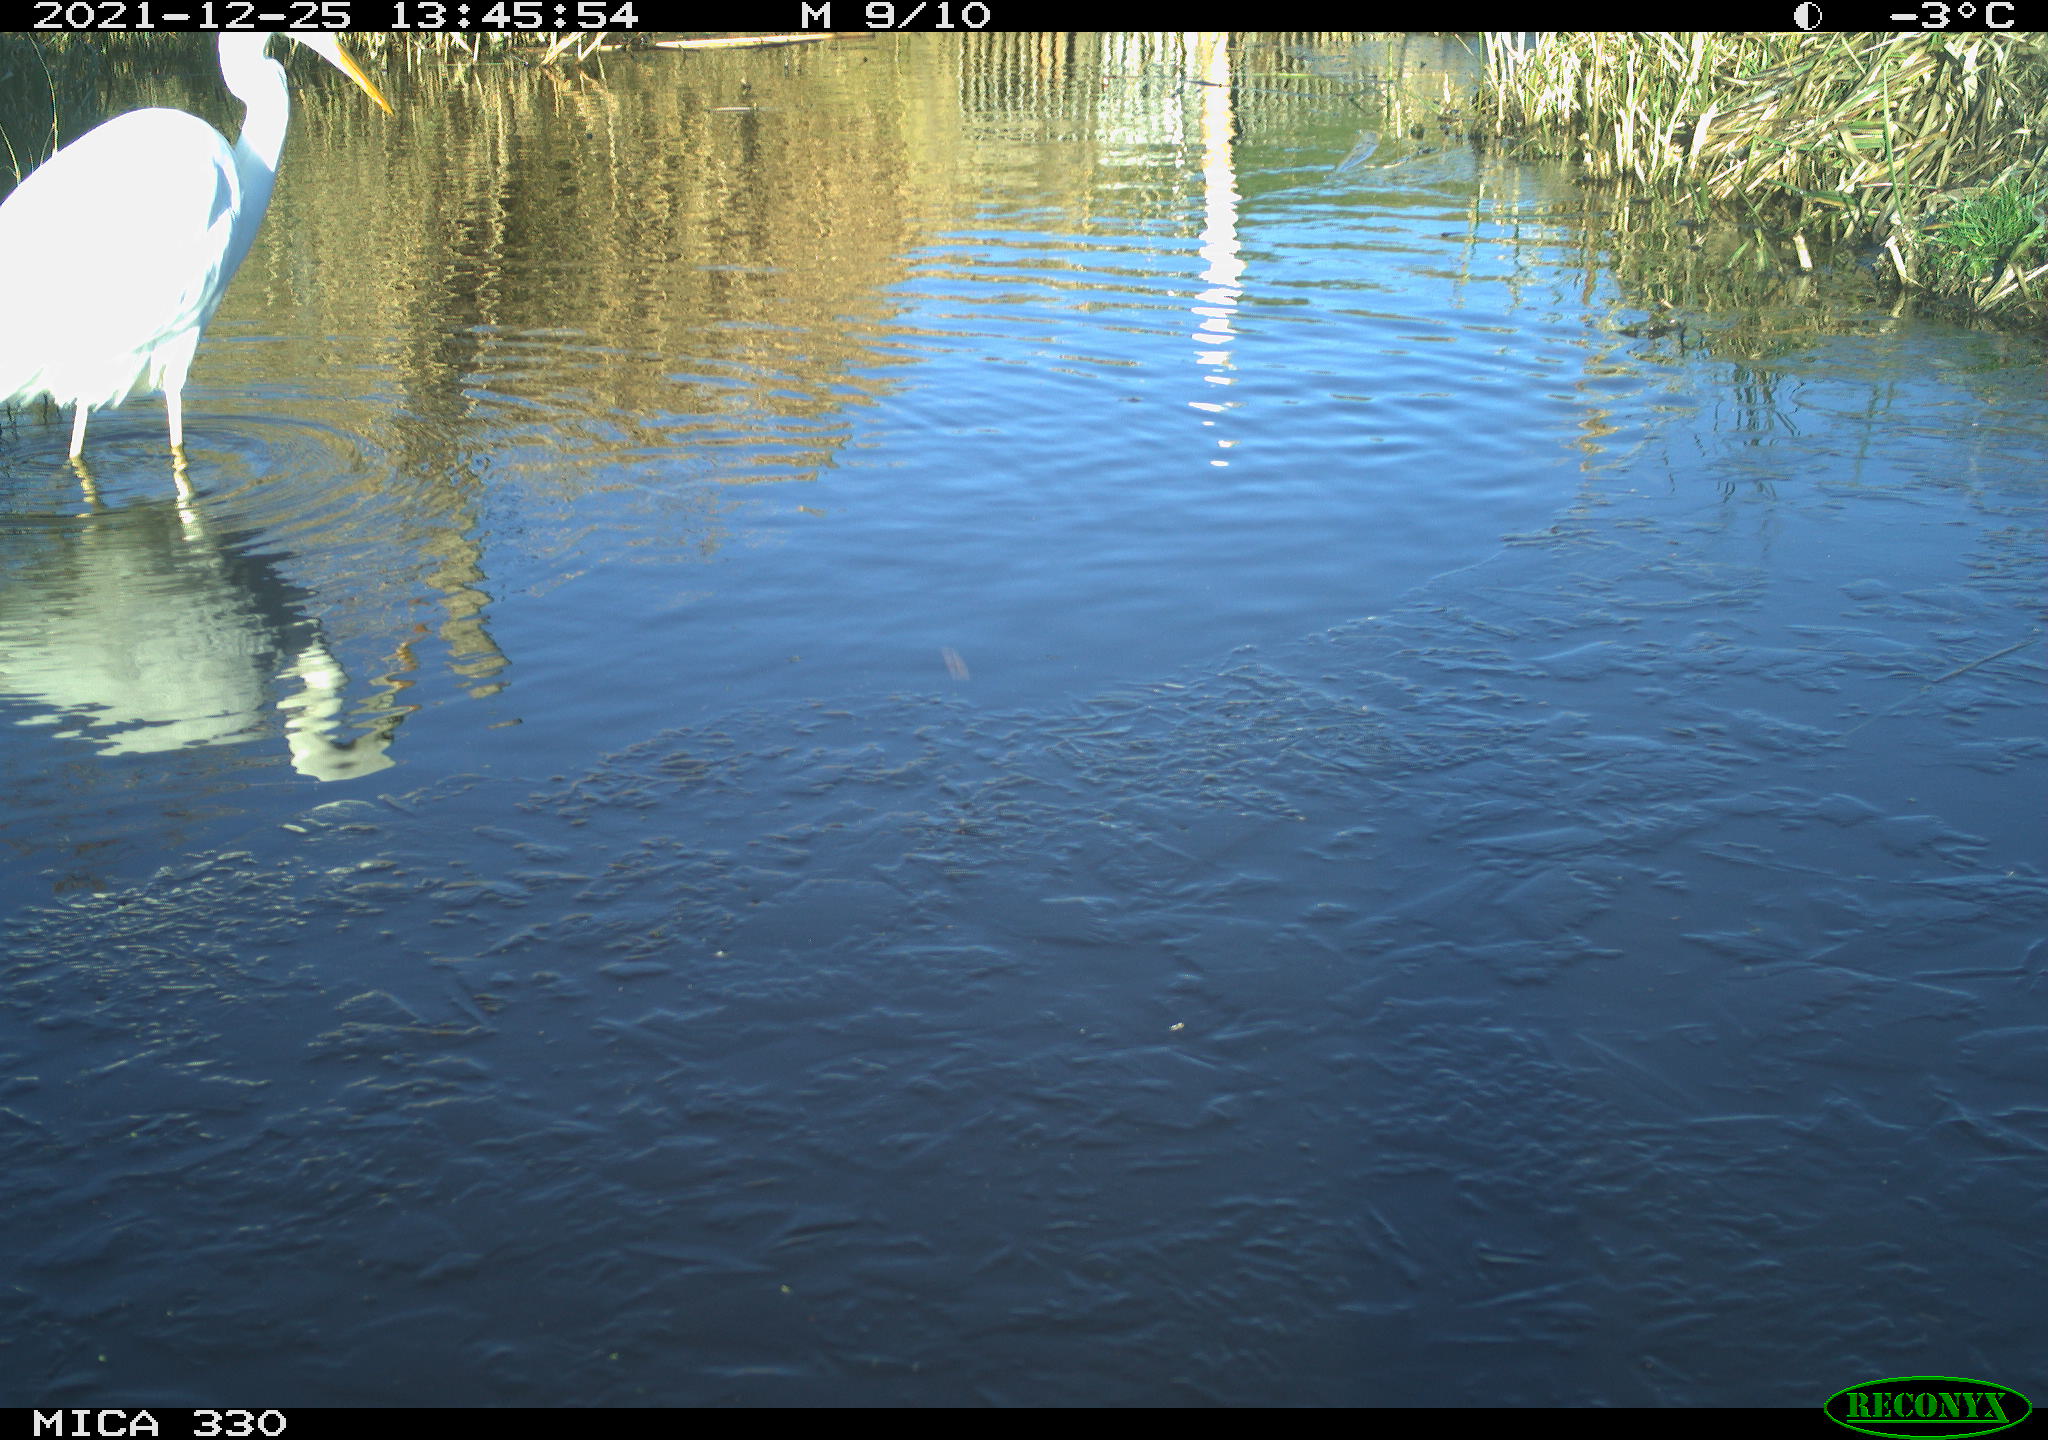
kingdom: Animalia
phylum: Chordata
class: Aves
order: Pelecaniformes
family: Ardeidae
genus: Ardea
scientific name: Ardea alba
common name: Great egret
